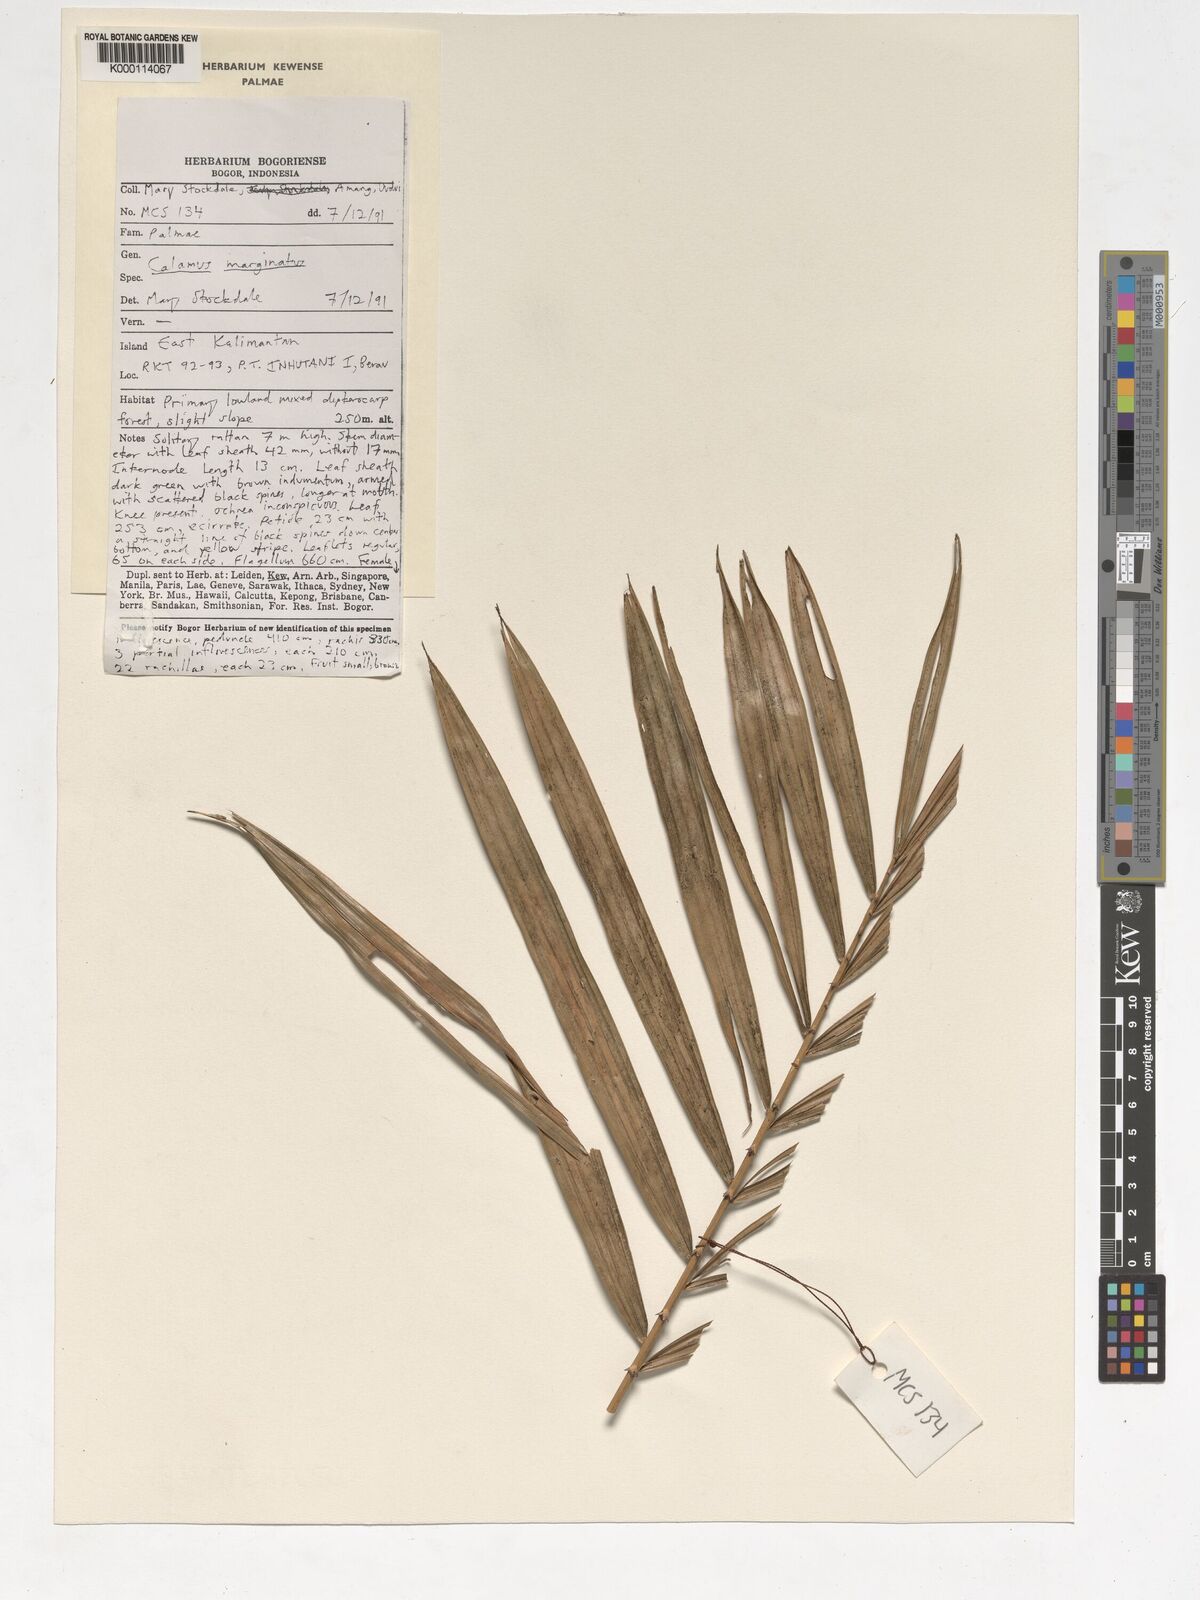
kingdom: Plantae
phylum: Tracheophyta
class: Liliopsida
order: Arecales
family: Arecaceae
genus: Calamus
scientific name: Calamus
